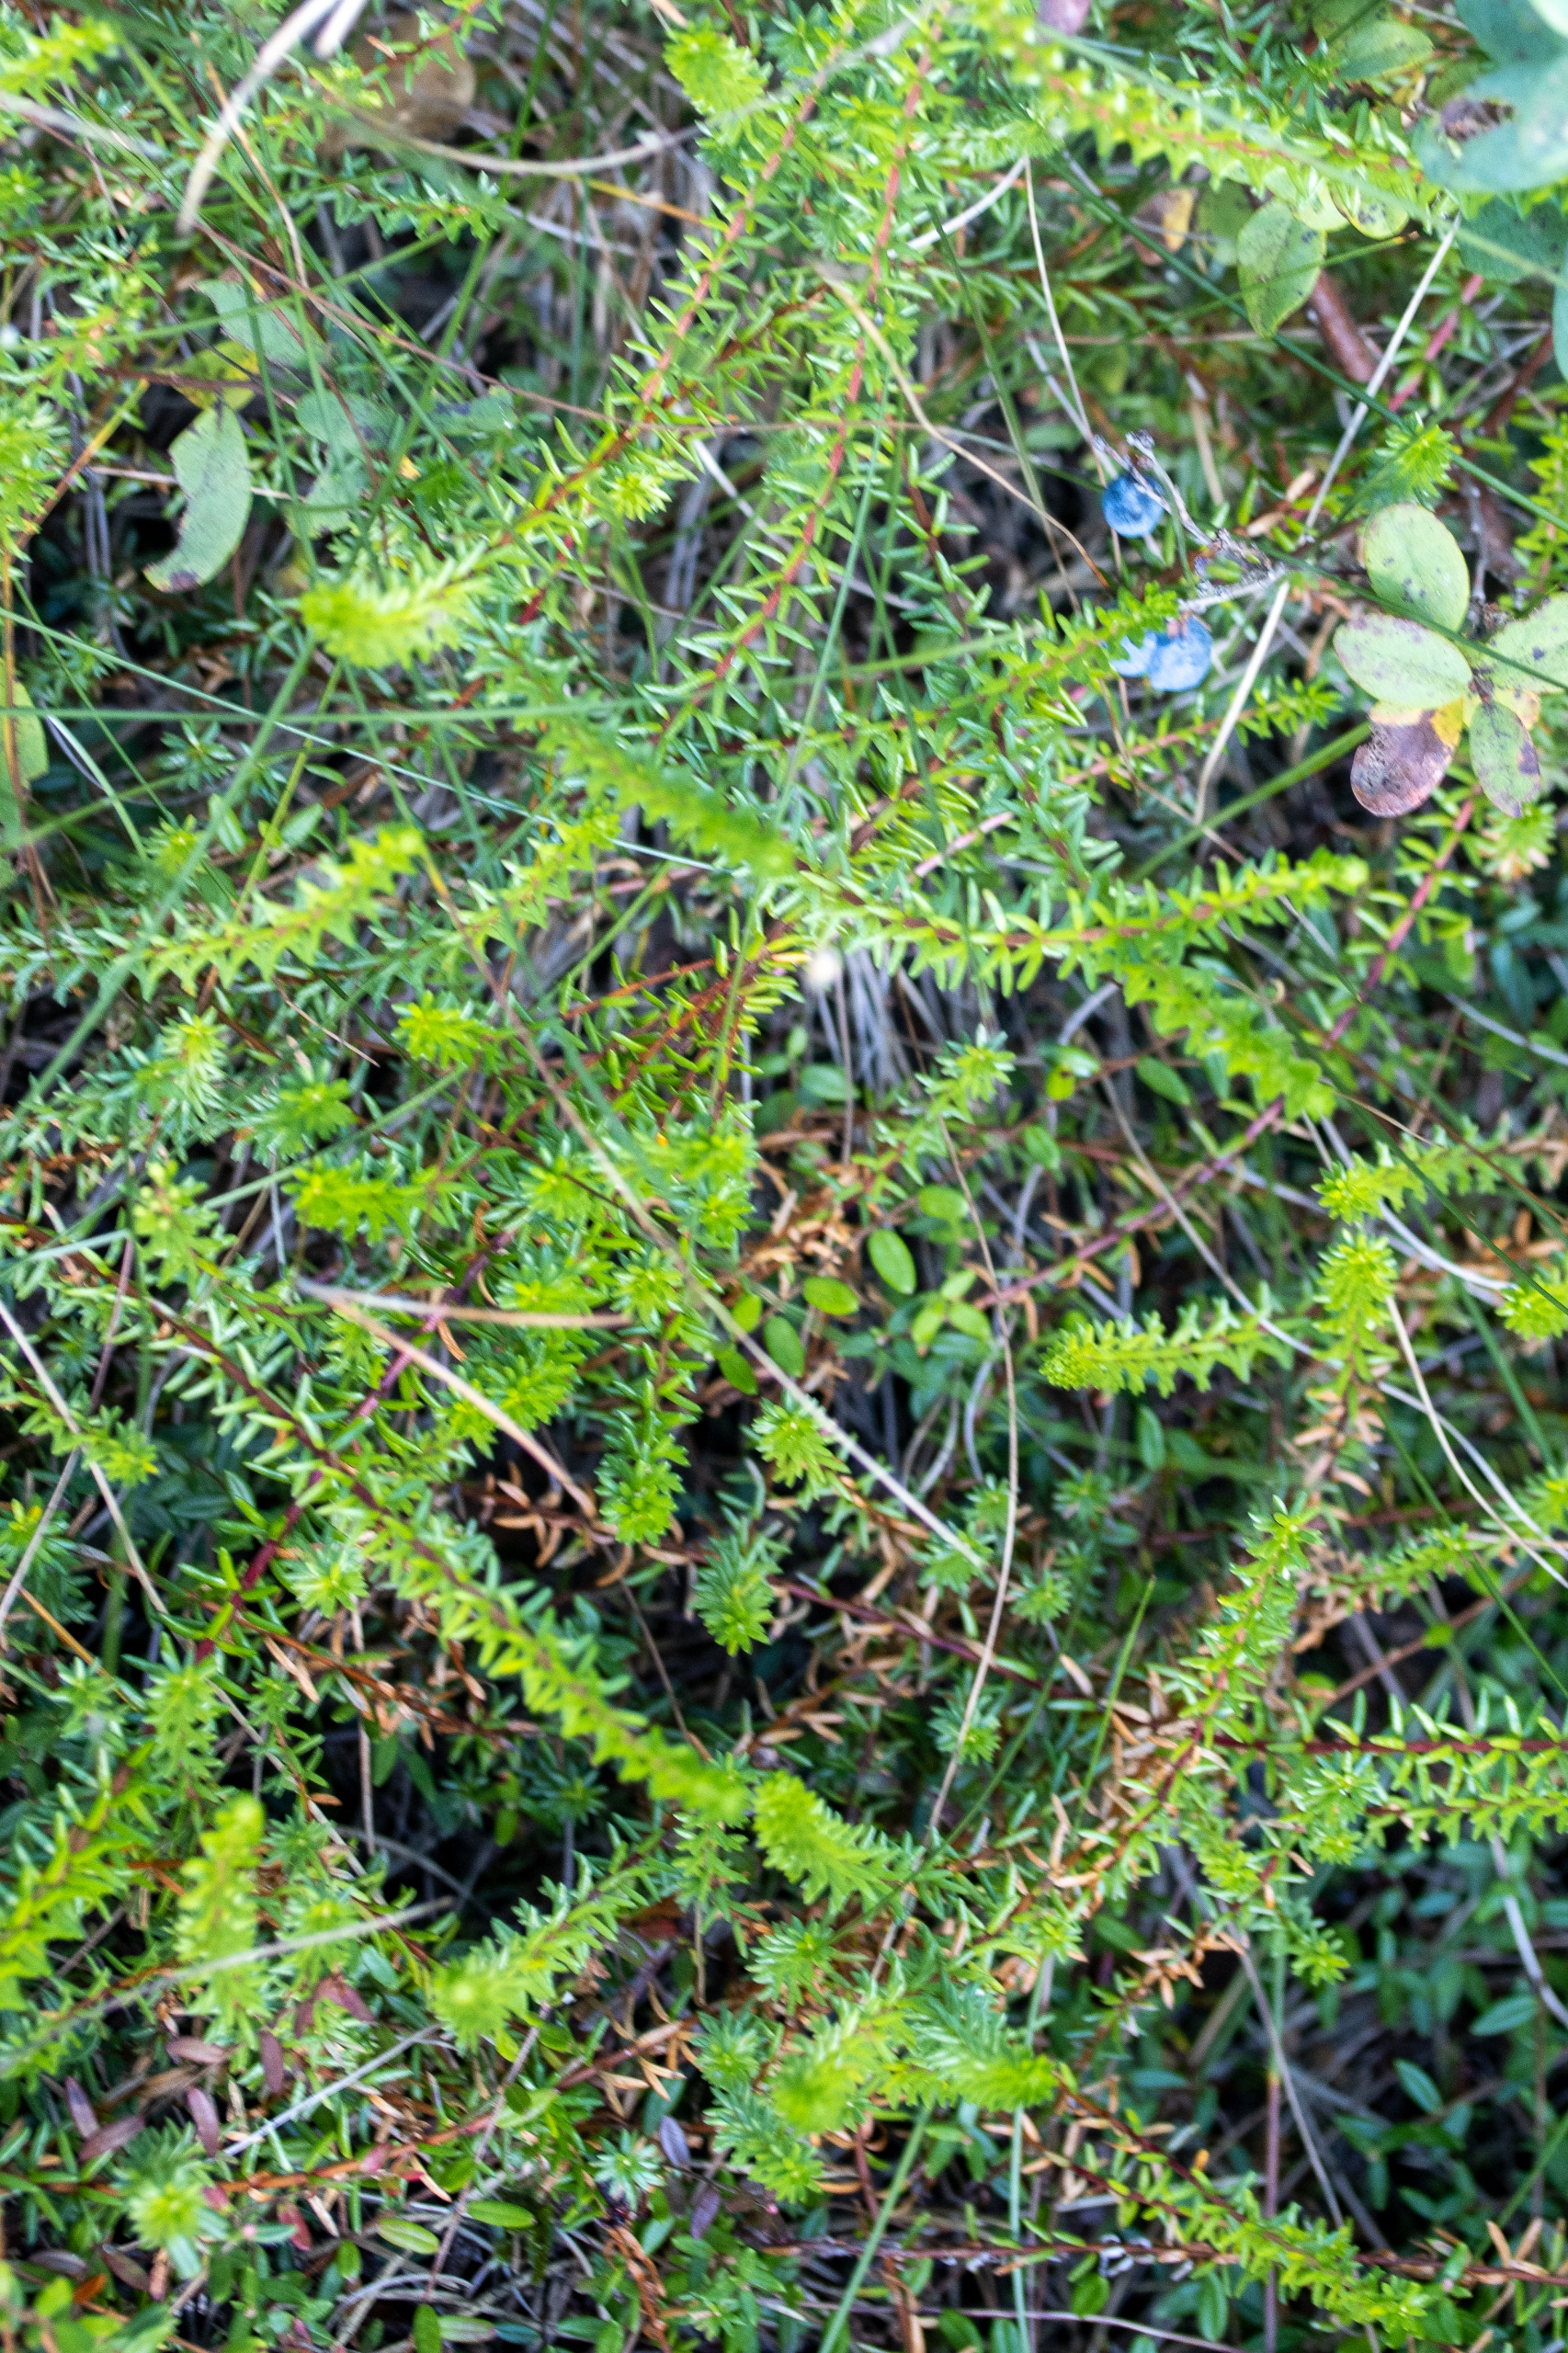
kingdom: Plantae
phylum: Tracheophyta
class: Magnoliopsida
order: Ericales
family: Ericaceae
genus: Empetrum
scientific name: Empetrum nigrum
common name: Revling
